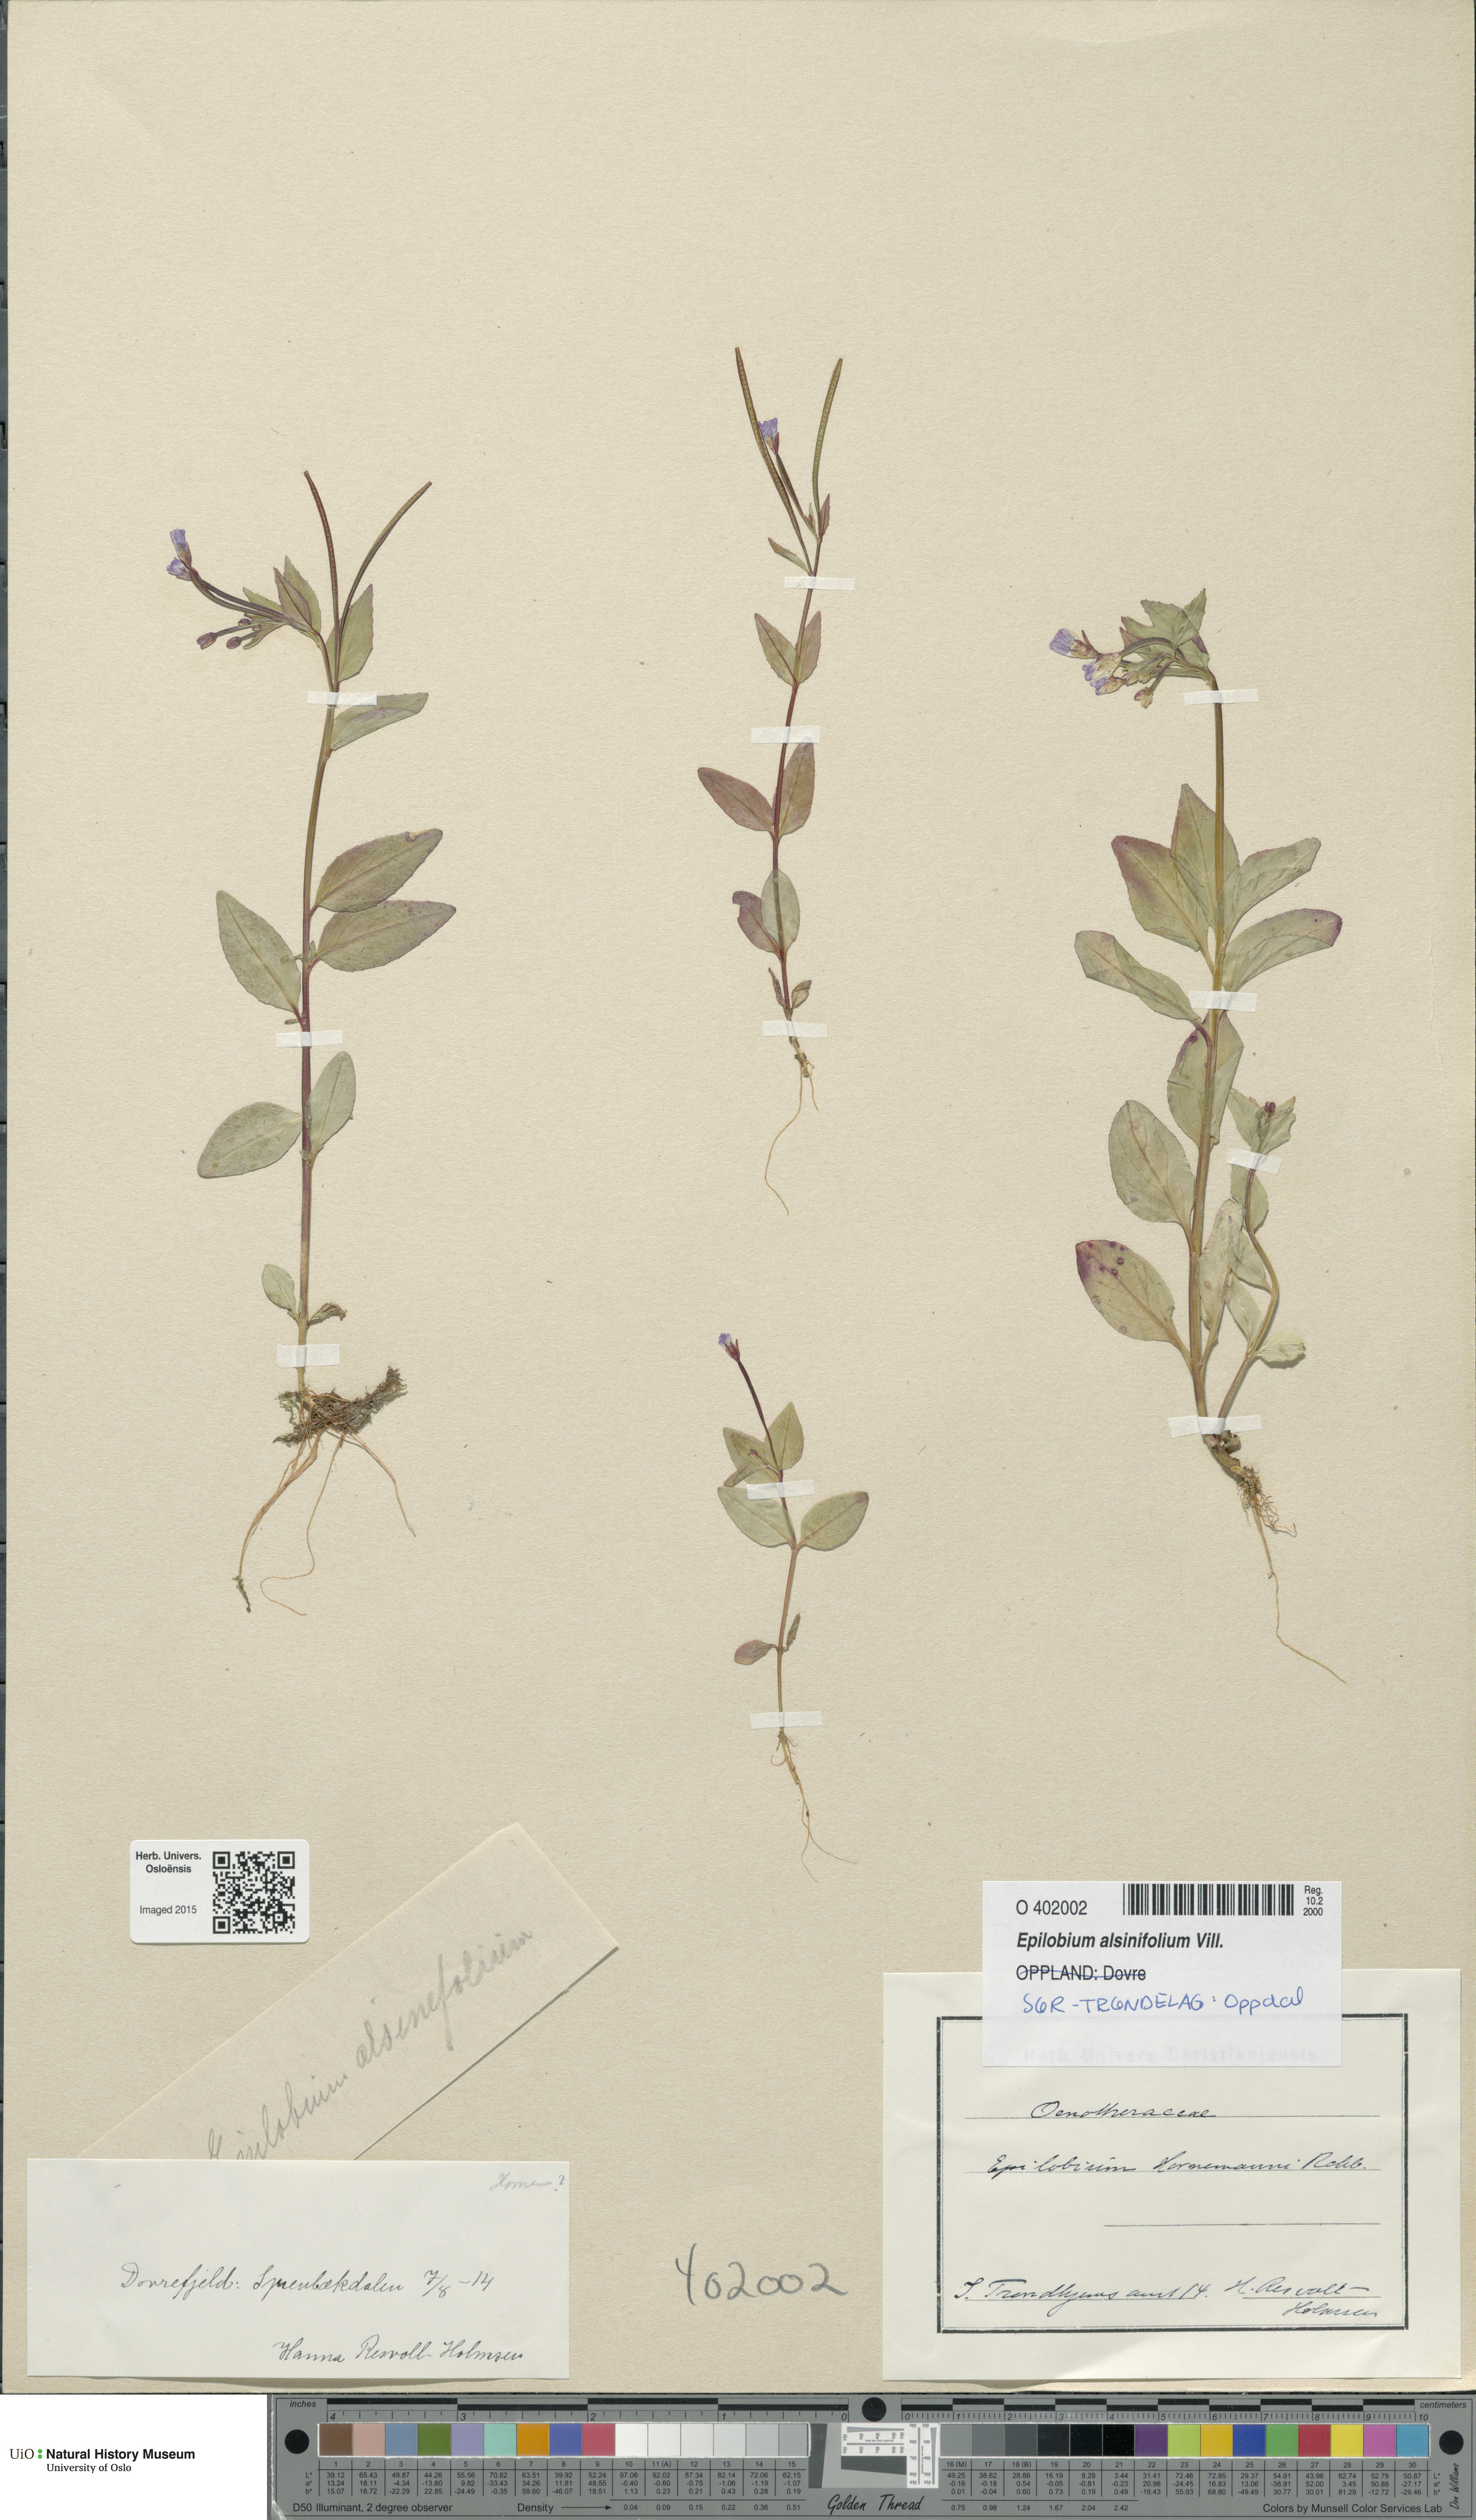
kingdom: Plantae
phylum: Tracheophyta
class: Magnoliopsida
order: Myrtales
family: Onagraceae
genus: Epilobium
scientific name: Epilobium alsinifolium
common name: Chickweed willowherb
